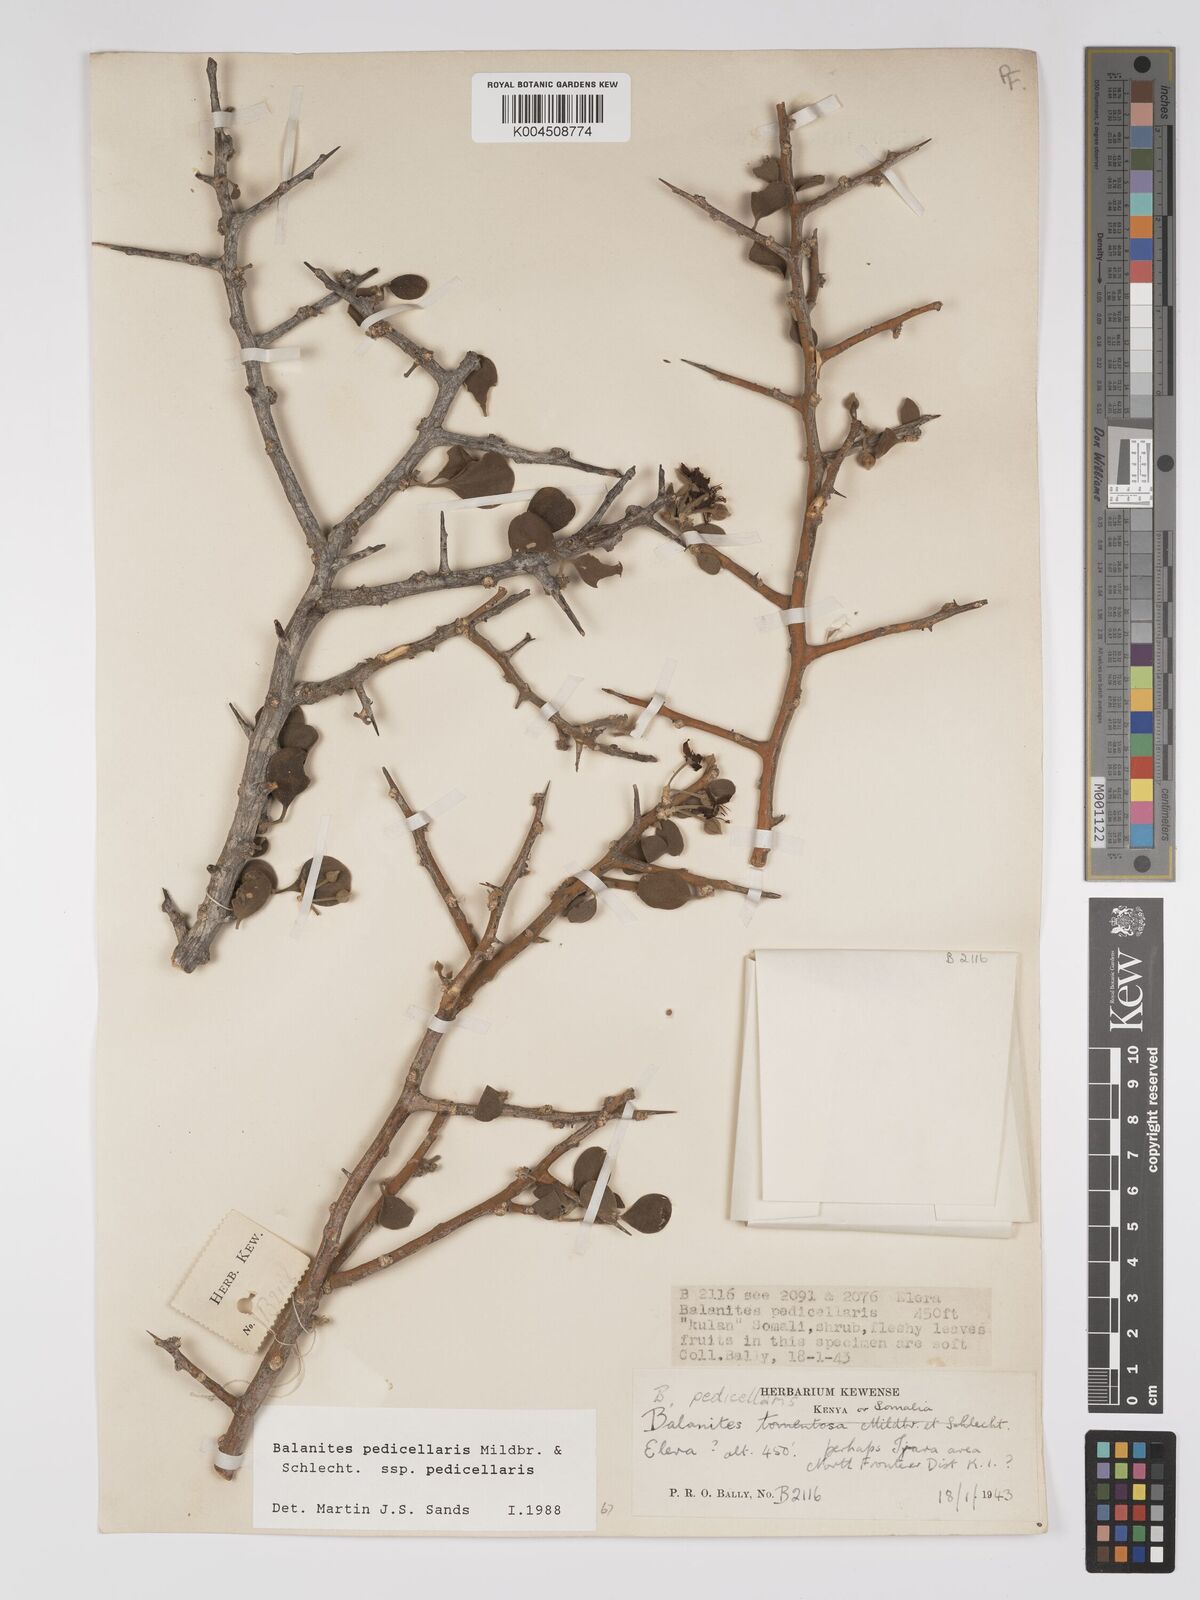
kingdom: Plantae
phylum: Tracheophyta
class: Magnoliopsida
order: Zygophyllales
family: Zygophyllaceae
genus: Balanites
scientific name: Balanites pedicellaris
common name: Small green-thorn
